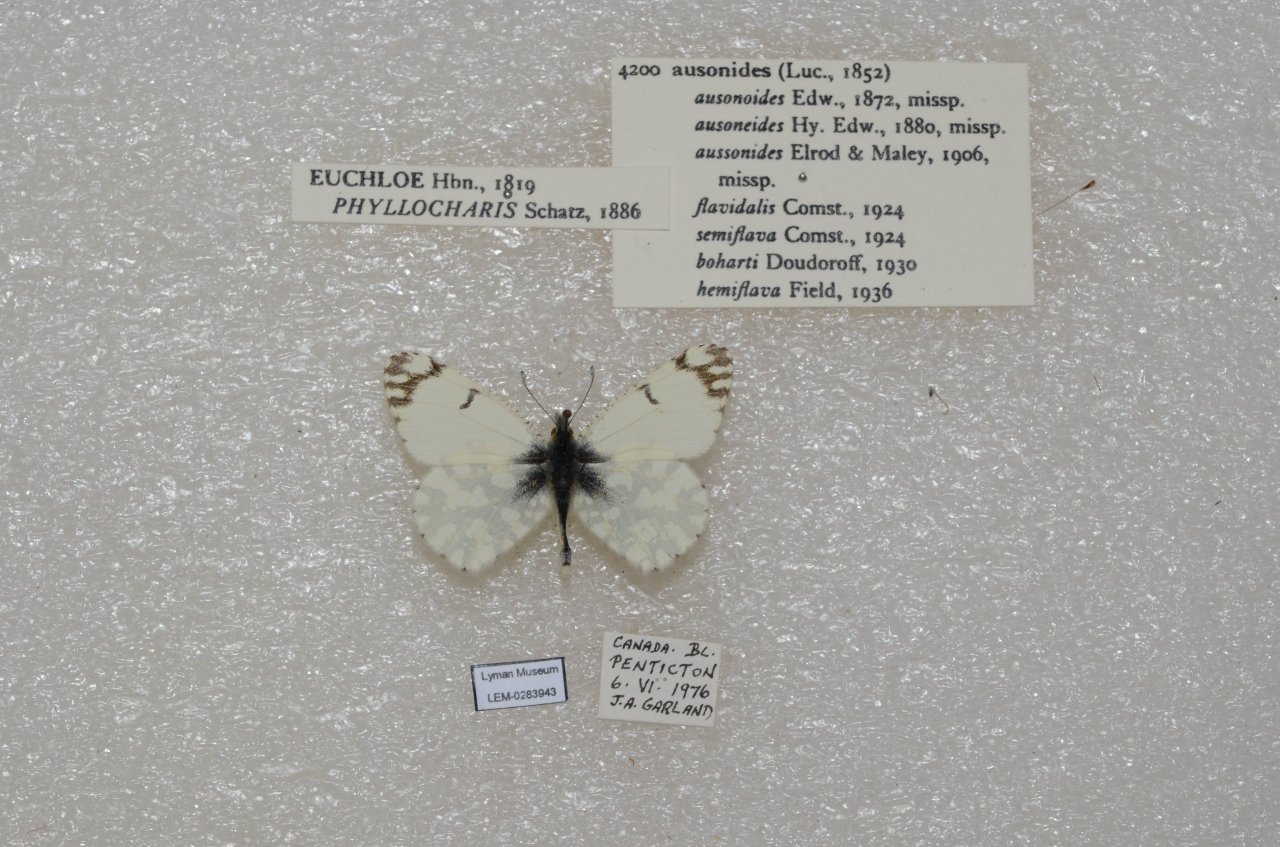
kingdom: Animalia
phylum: Arthropoda
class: Insecta
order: Lepidoptera
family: Pieridae
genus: Euchloe
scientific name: Euchloe ausonides
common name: Large Marble
